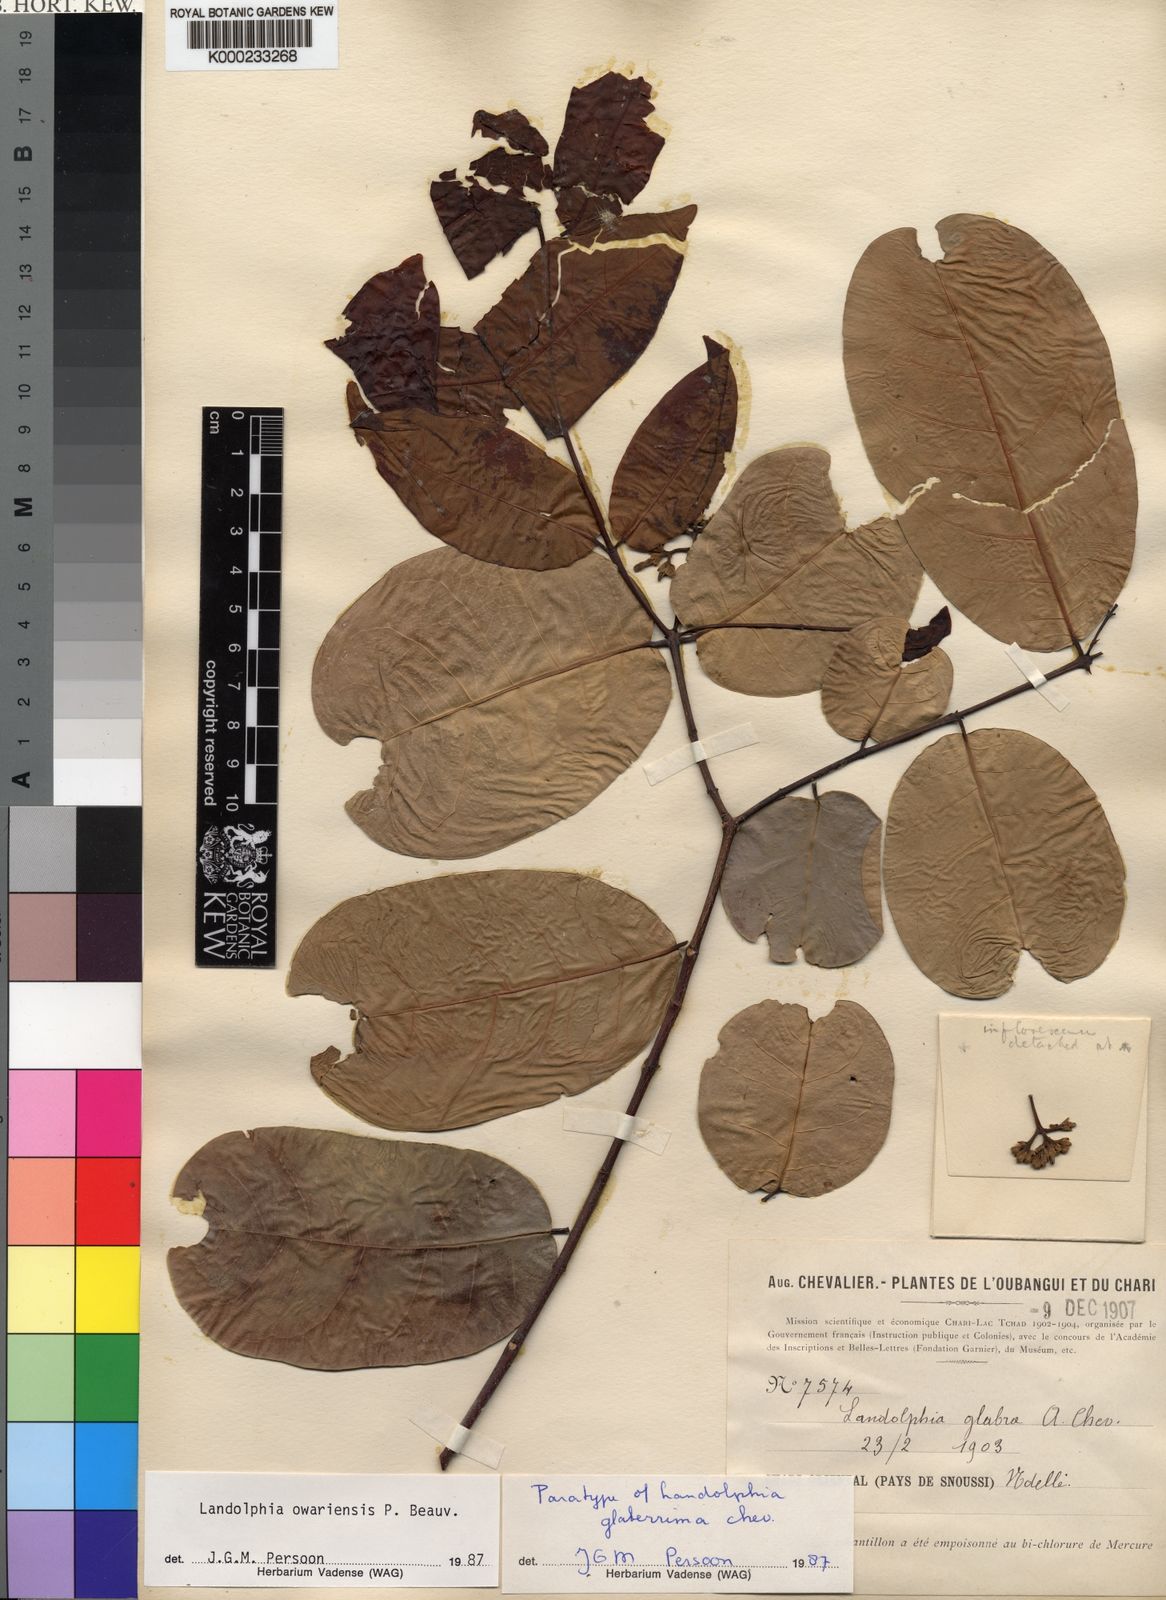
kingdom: Plantae
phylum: Tracheophyta
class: Magnoliopsida
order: Gentianales
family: Apocynaceae
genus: Landolphia
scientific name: Landolphia owariensis
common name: White-ball-rubber
